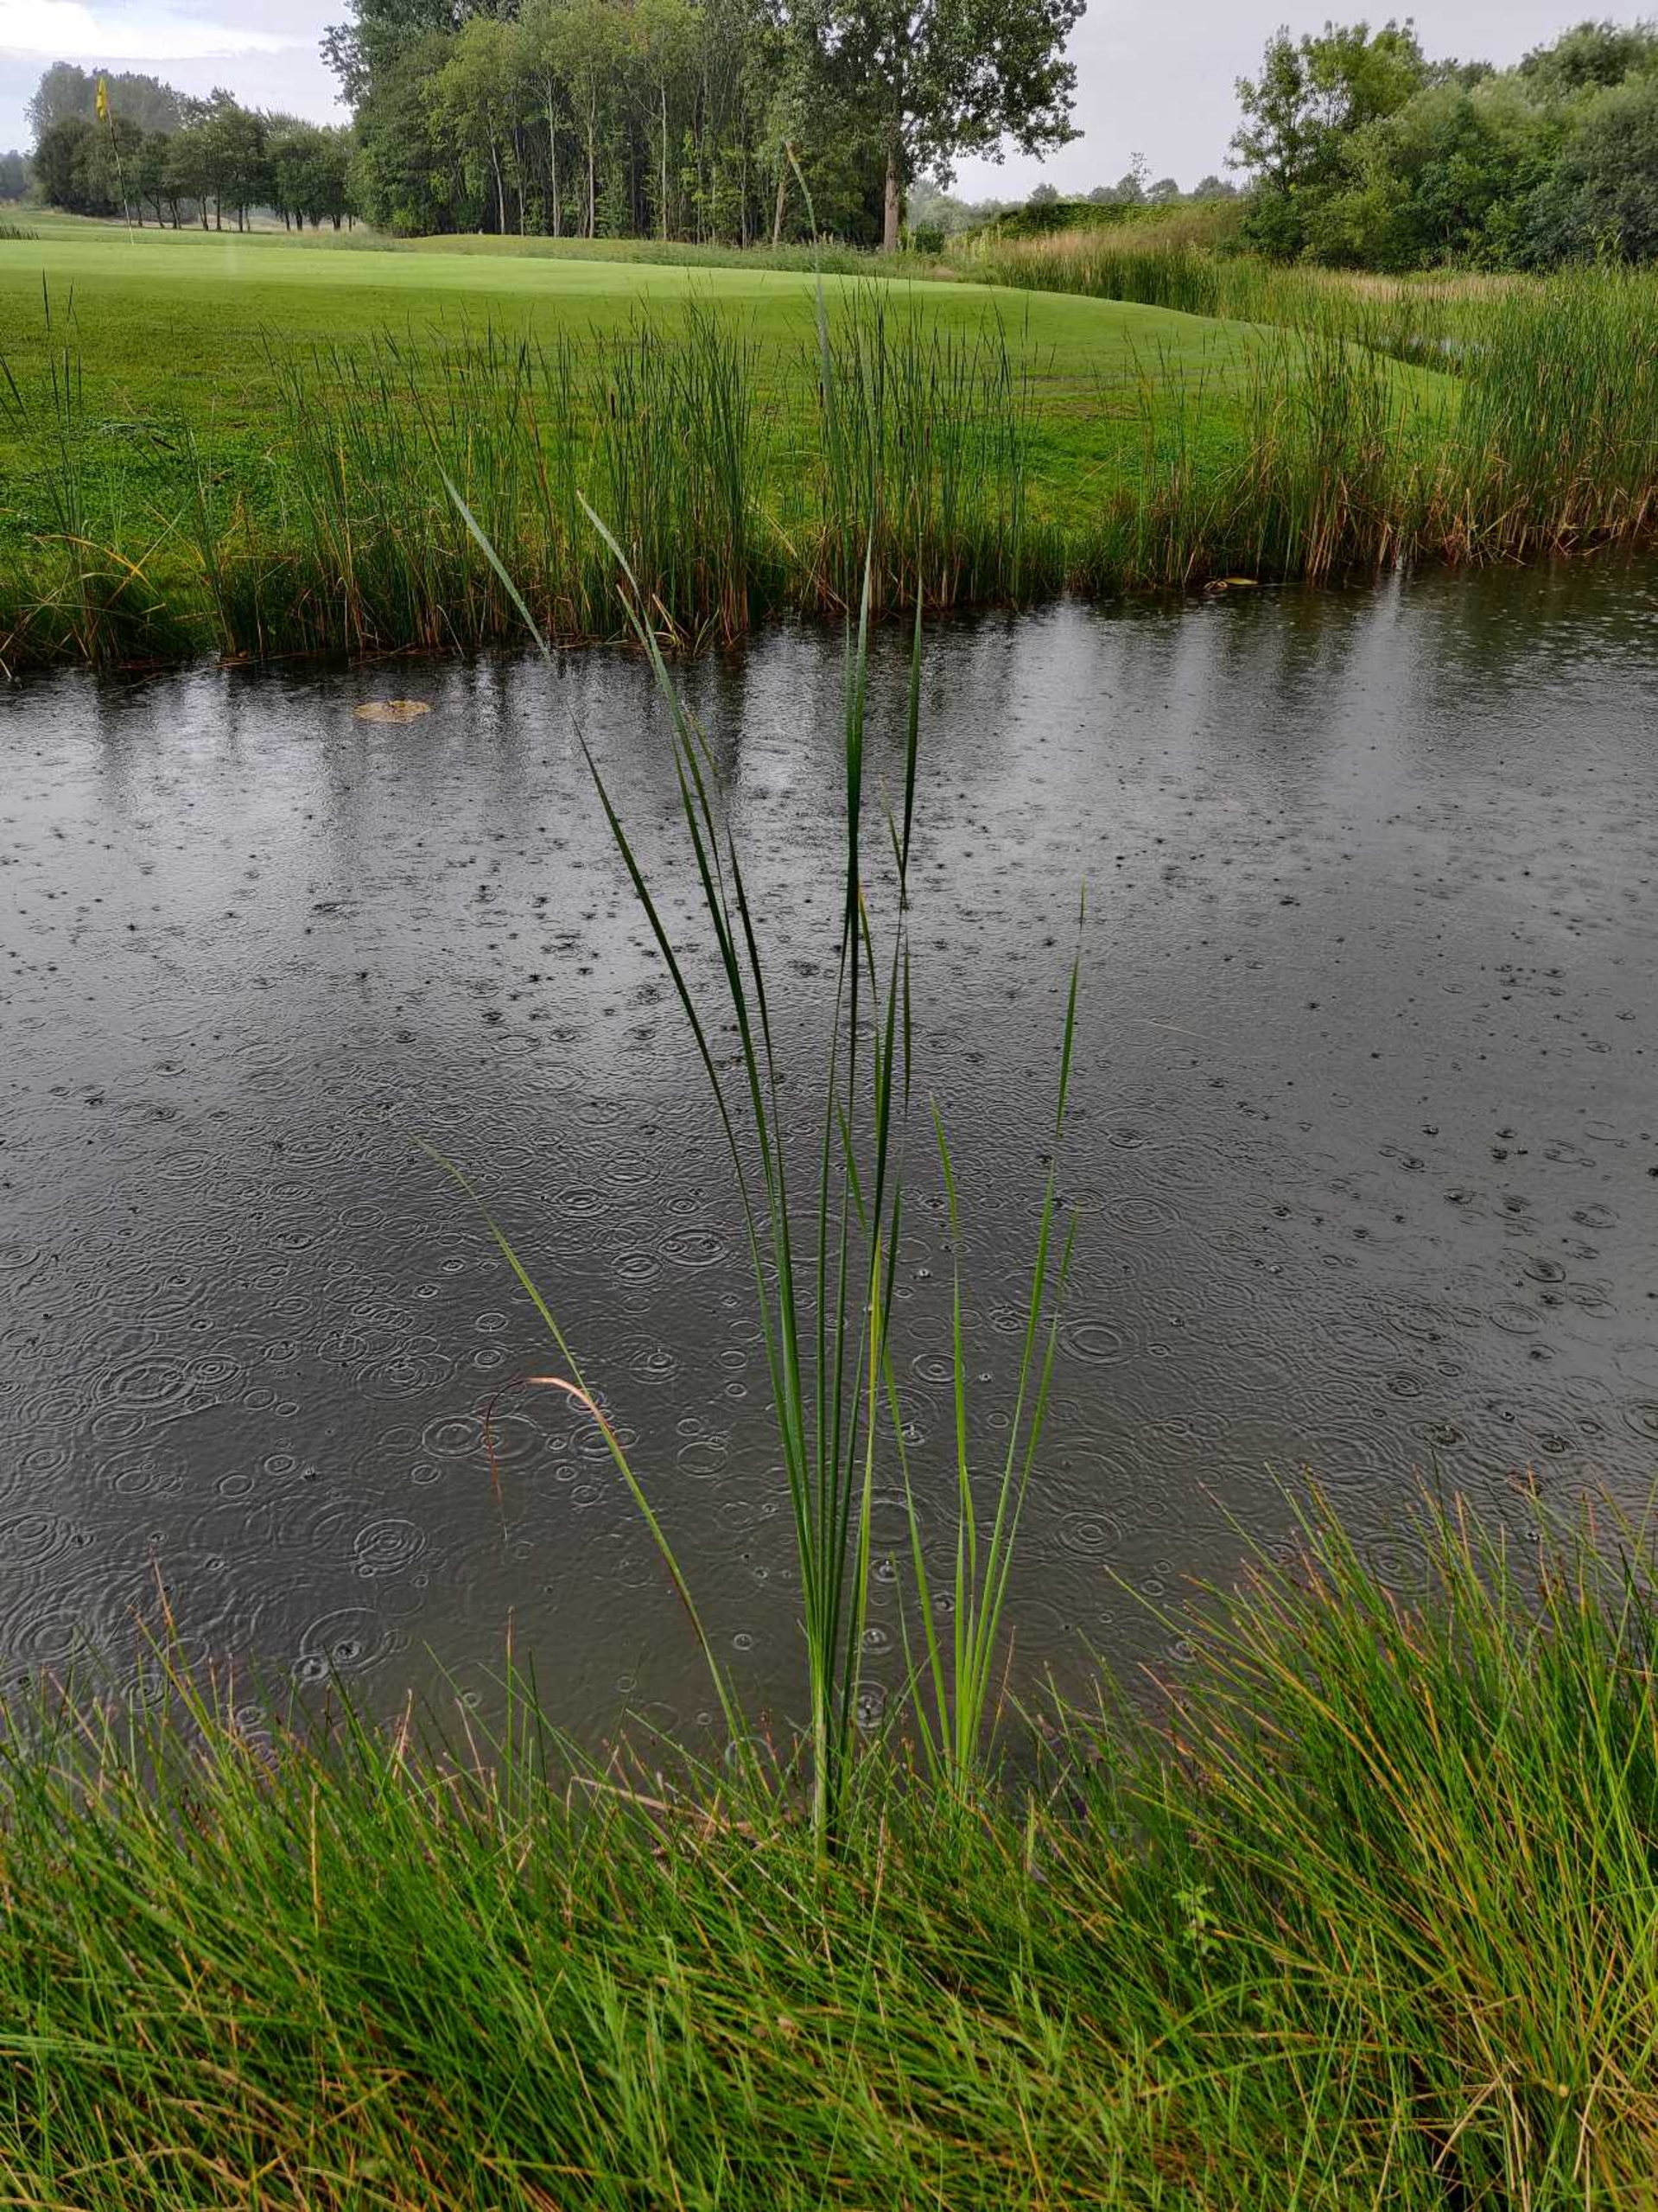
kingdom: Plantae
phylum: Tracheophyta
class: Liliopsida
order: Poales
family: Typhaceae
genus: Typha
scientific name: Typha angustifolia
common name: Smalbladet dunhammer
